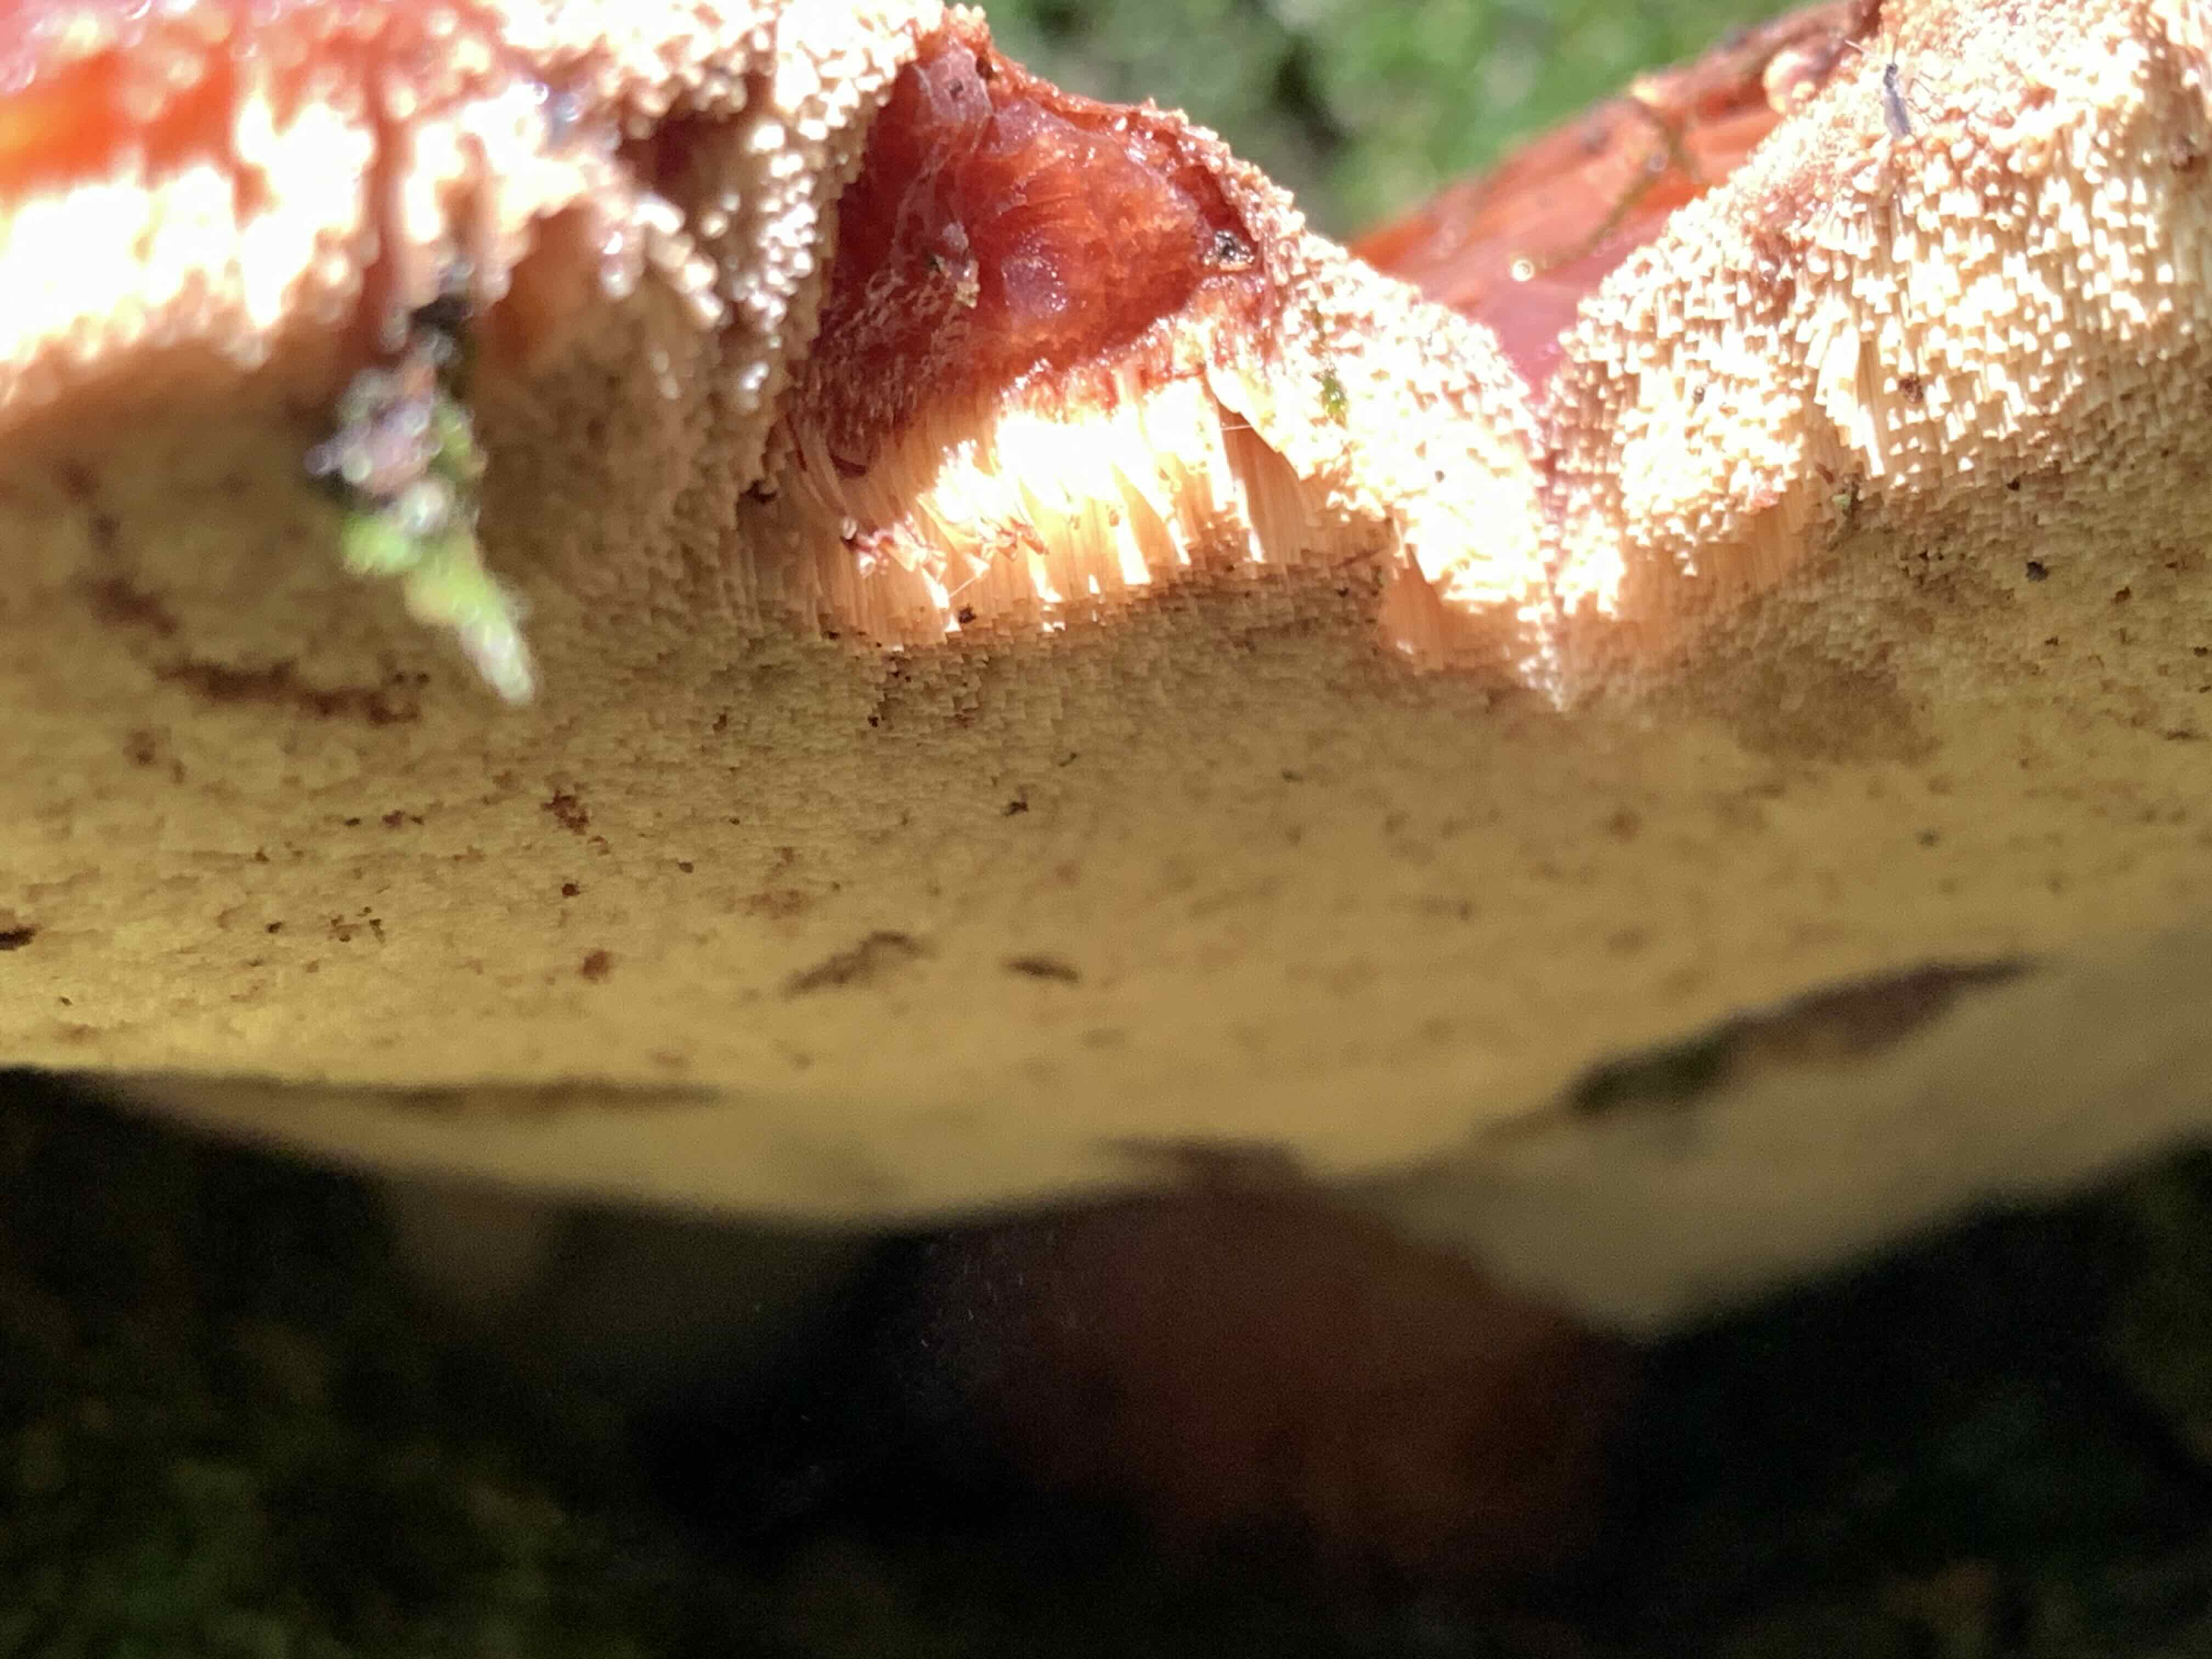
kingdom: Fungi
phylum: Basidiomycota
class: Agaricomycetes
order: Agaricales
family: Fistulinaceae
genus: Fistulina
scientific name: Fistulina hepatica
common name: oksetunge
